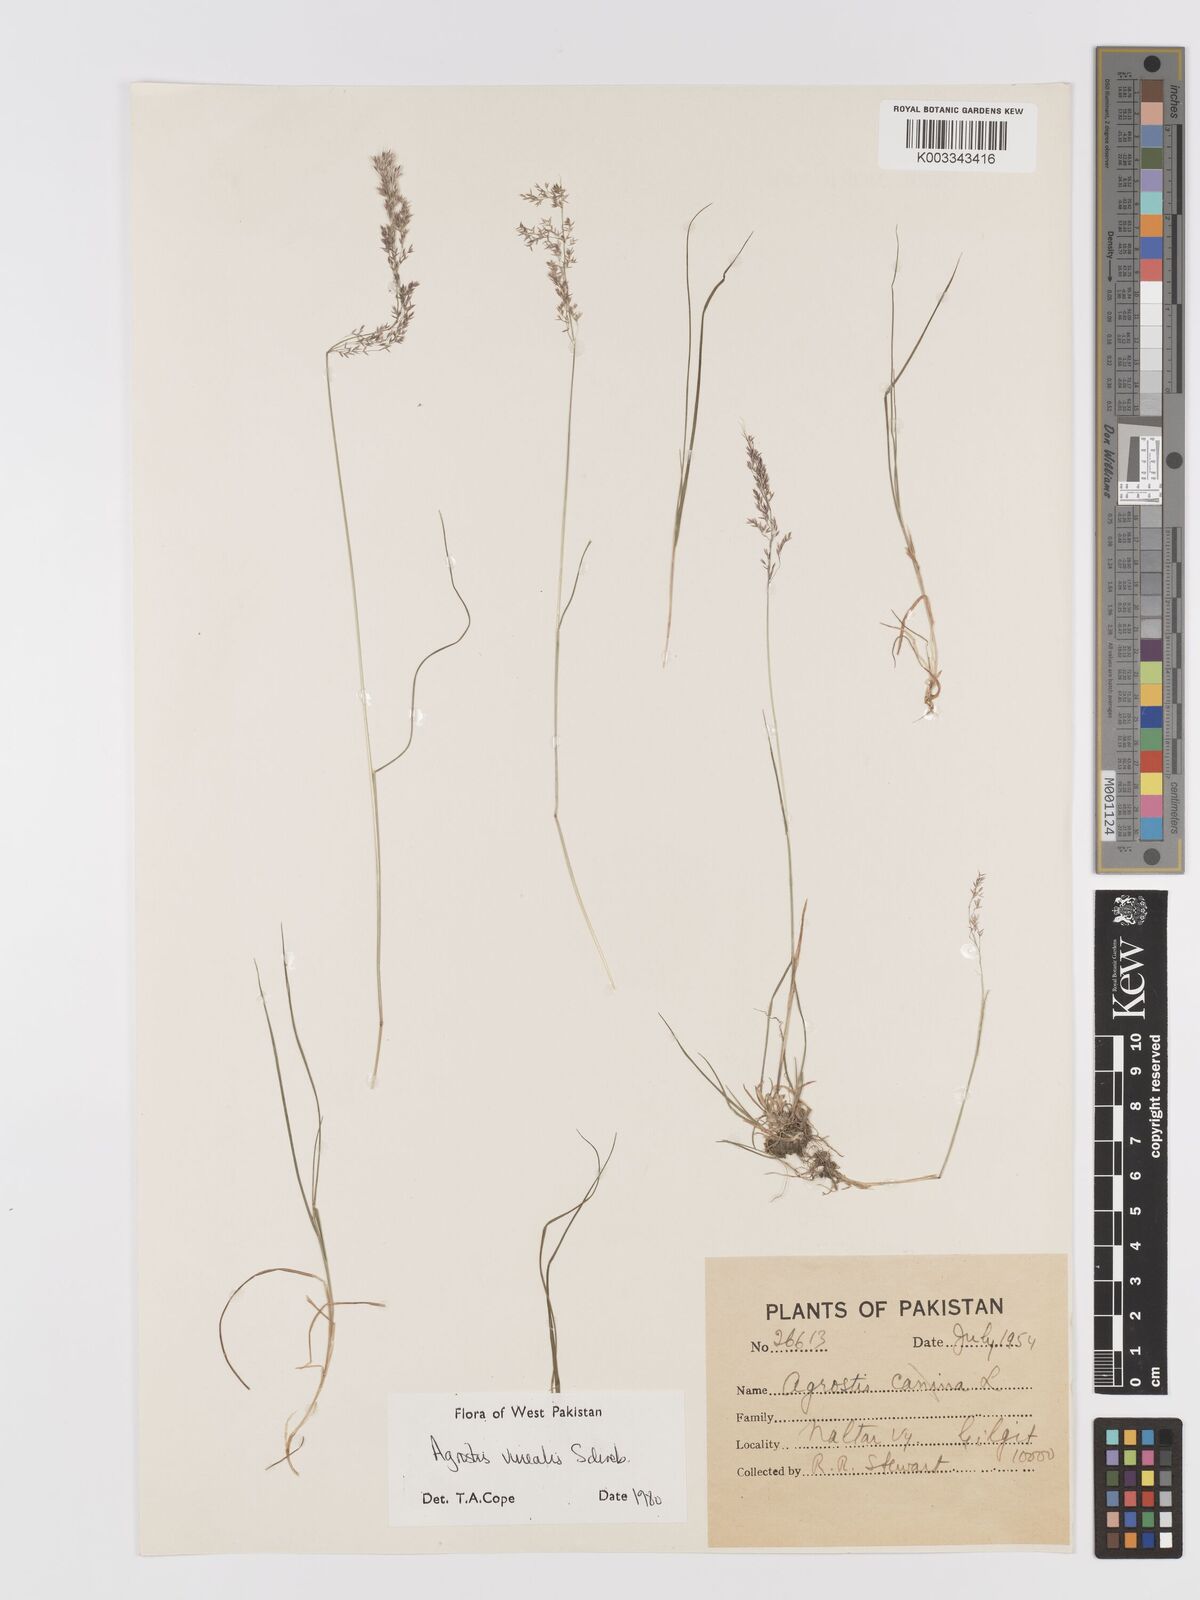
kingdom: Plantae
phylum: Tracheophyta
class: Liliopsida
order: Poales
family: Poaceae
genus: Agrostis
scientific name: Agrostis vinealis
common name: Brown bent
